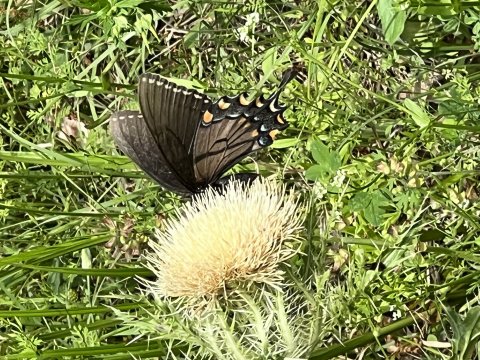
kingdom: Animalia
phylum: Arthropoda
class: Insecta
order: Lepidoptera
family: Papilionidae
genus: Pterourus
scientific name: Pterourus glaucus
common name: Eastern Tiger Swallowtail
